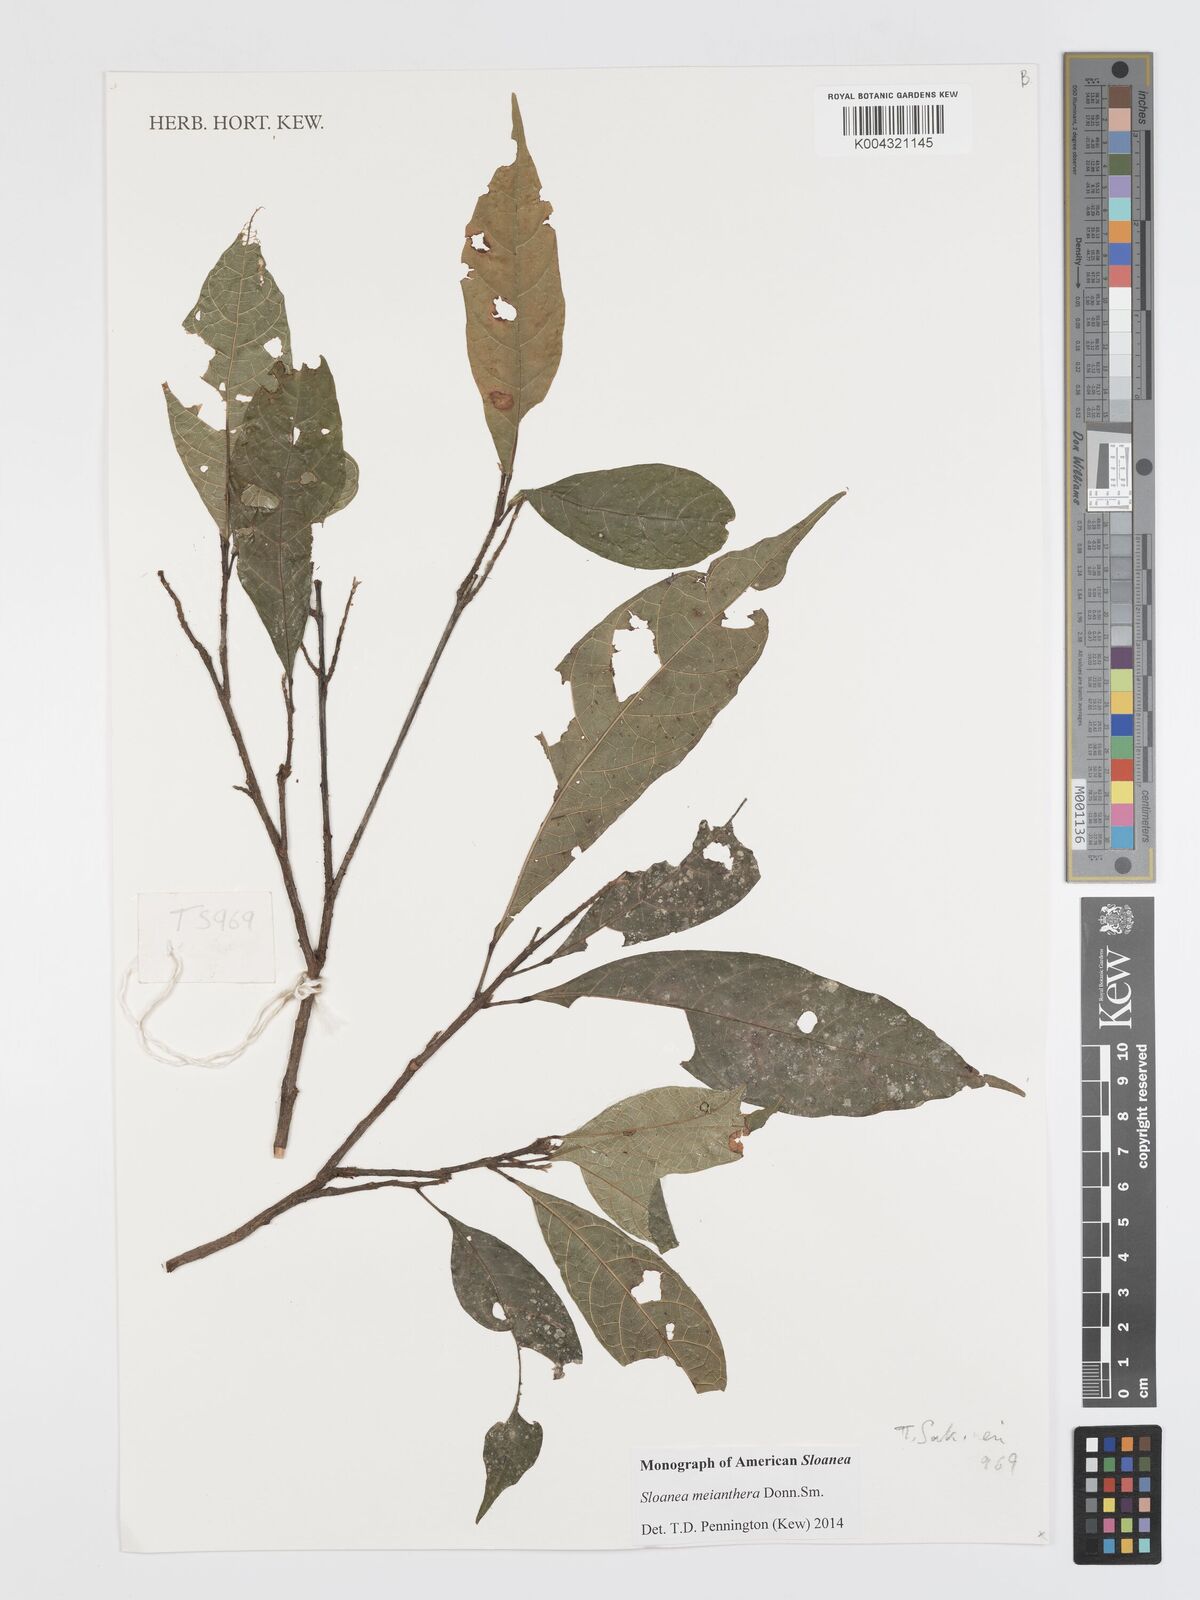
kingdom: Plantae
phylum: Tracheophyta
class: Magnoliopsida
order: Oxalidales
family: Elaeocarpaceae
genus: Sloanea
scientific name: Sloanea meianthera
